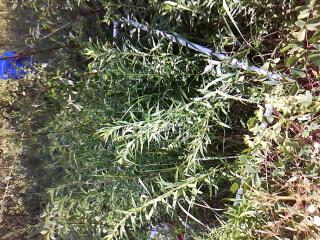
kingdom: Plantae
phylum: Tracheophyta
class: Polypodiopsida
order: Equisetales
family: Equisetaceae
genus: Equisetum
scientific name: Equisetum palustre
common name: Marsh horsetail
